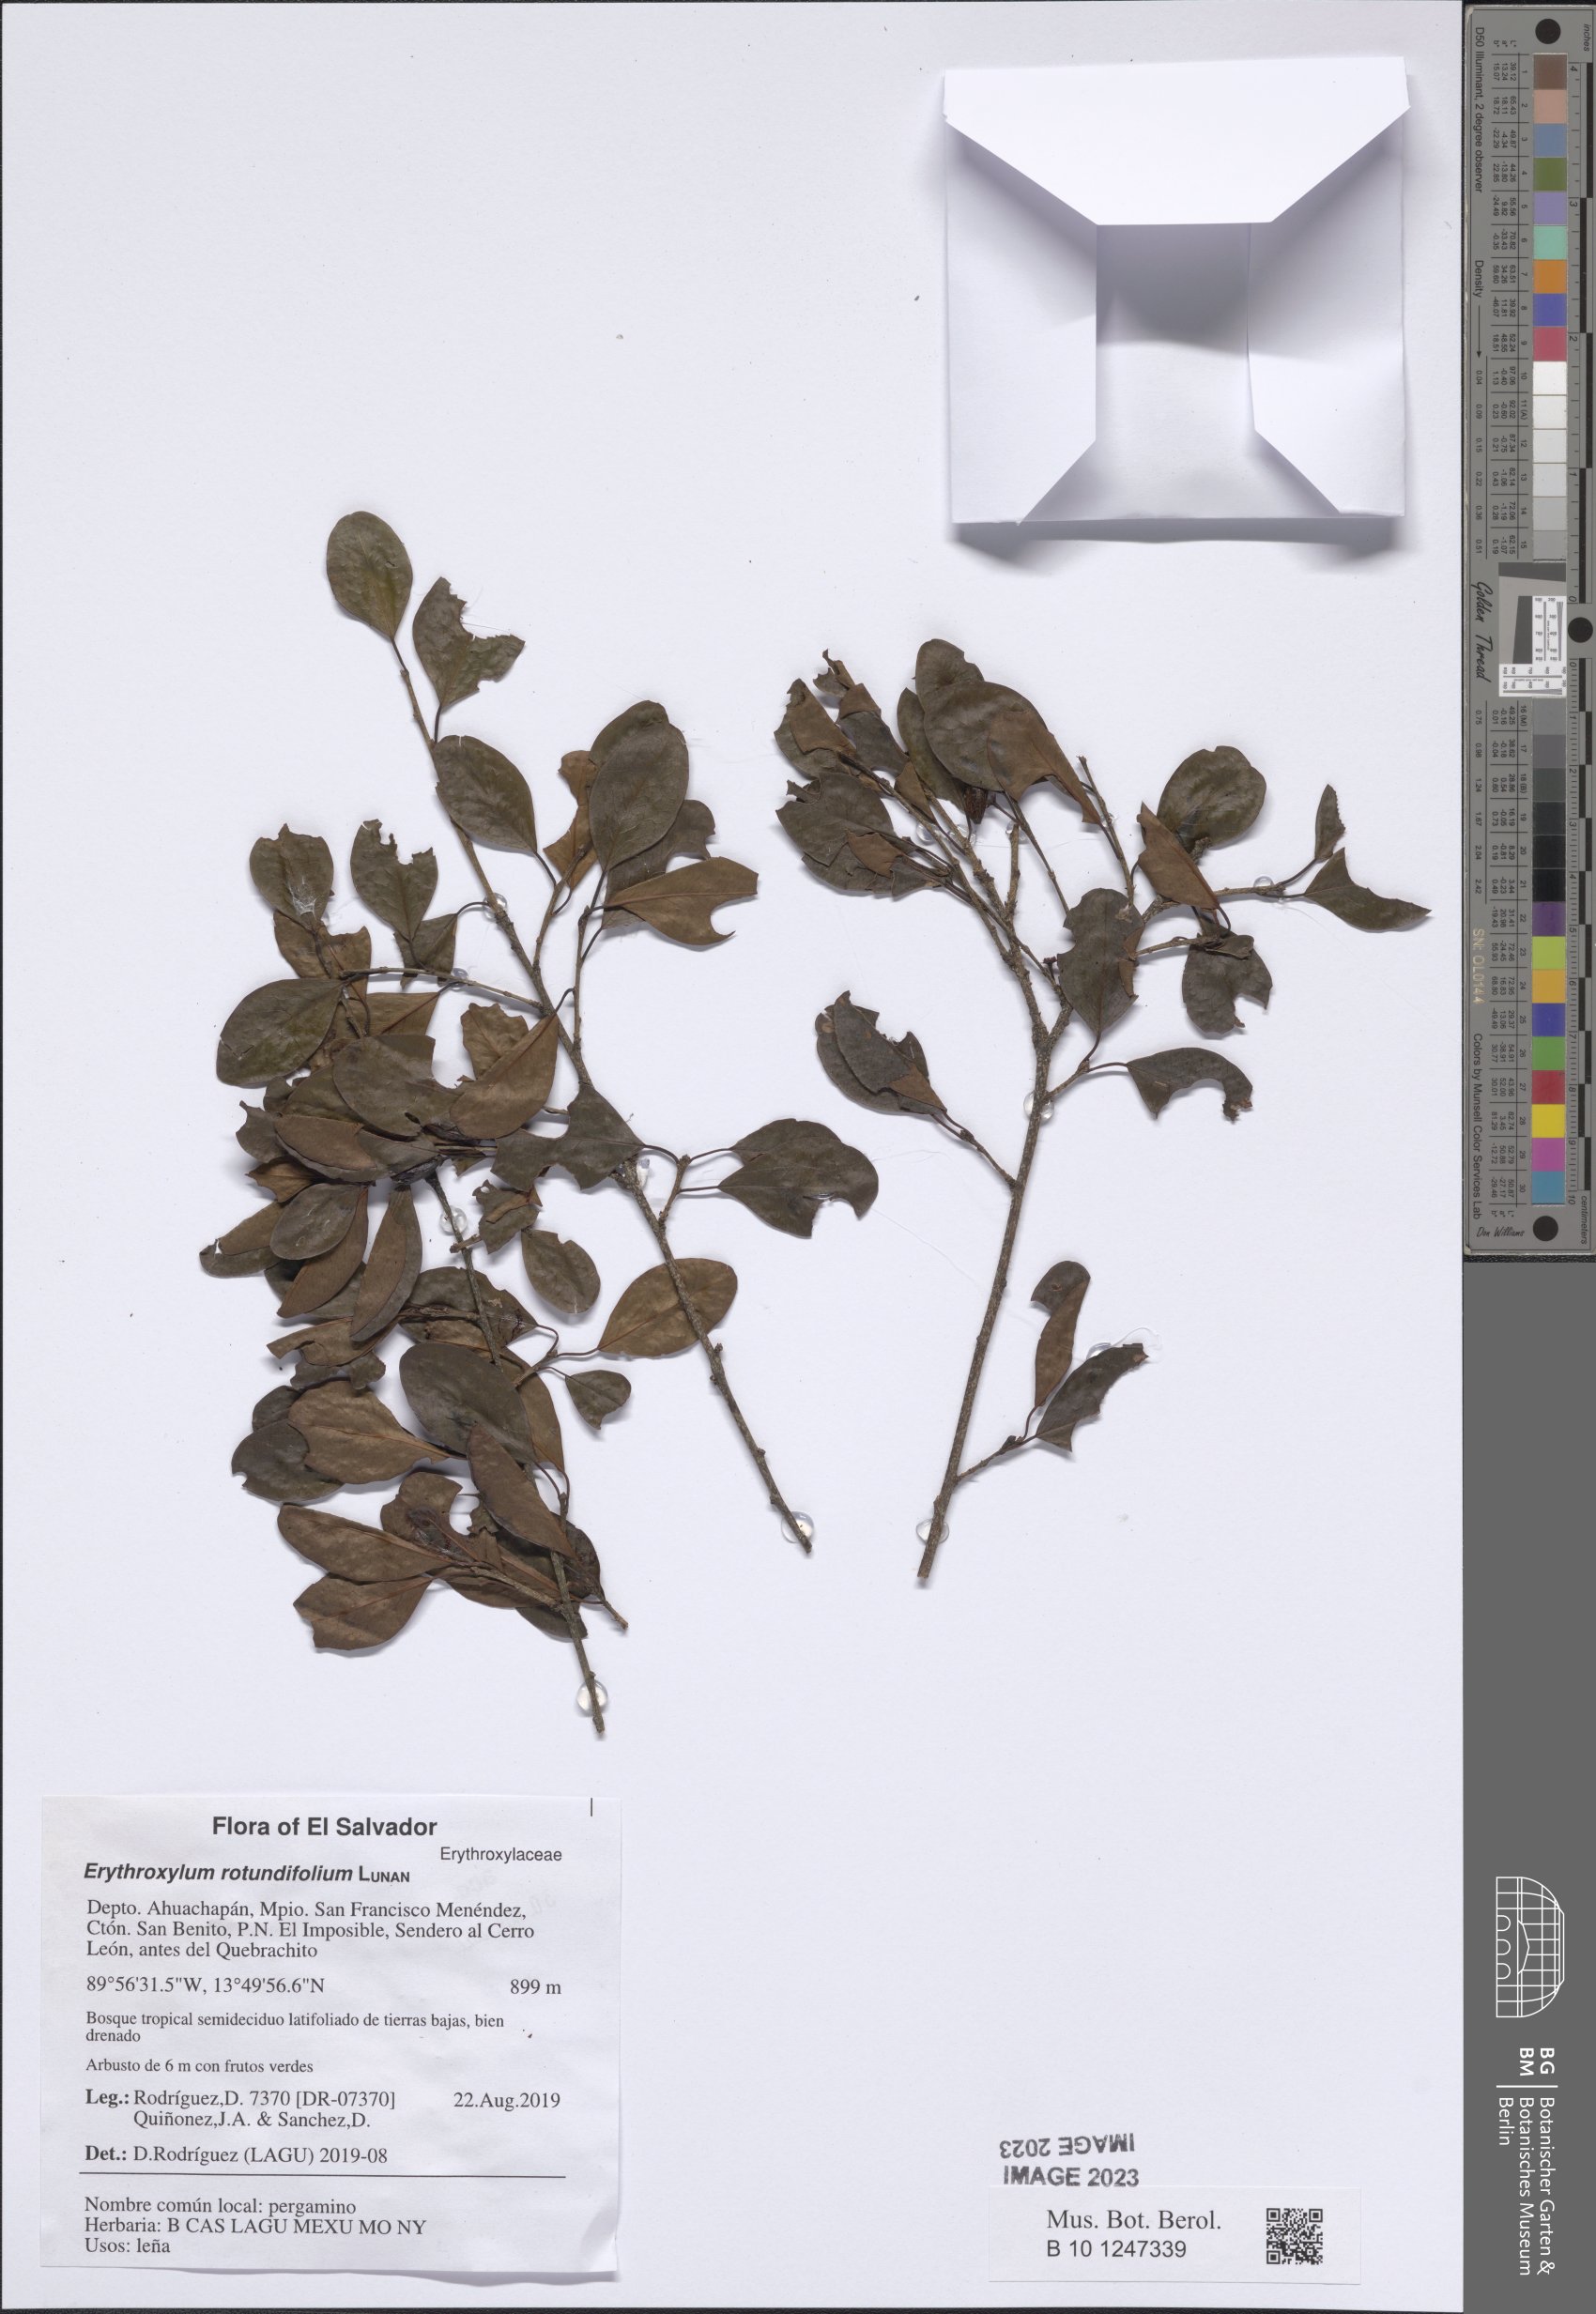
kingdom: Plantae
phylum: Tracheophyta
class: Magnoliopsida
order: Malpighiales
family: Erythroxylaceae
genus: Erythroxylum
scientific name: Erythroxylum rotundifolium
